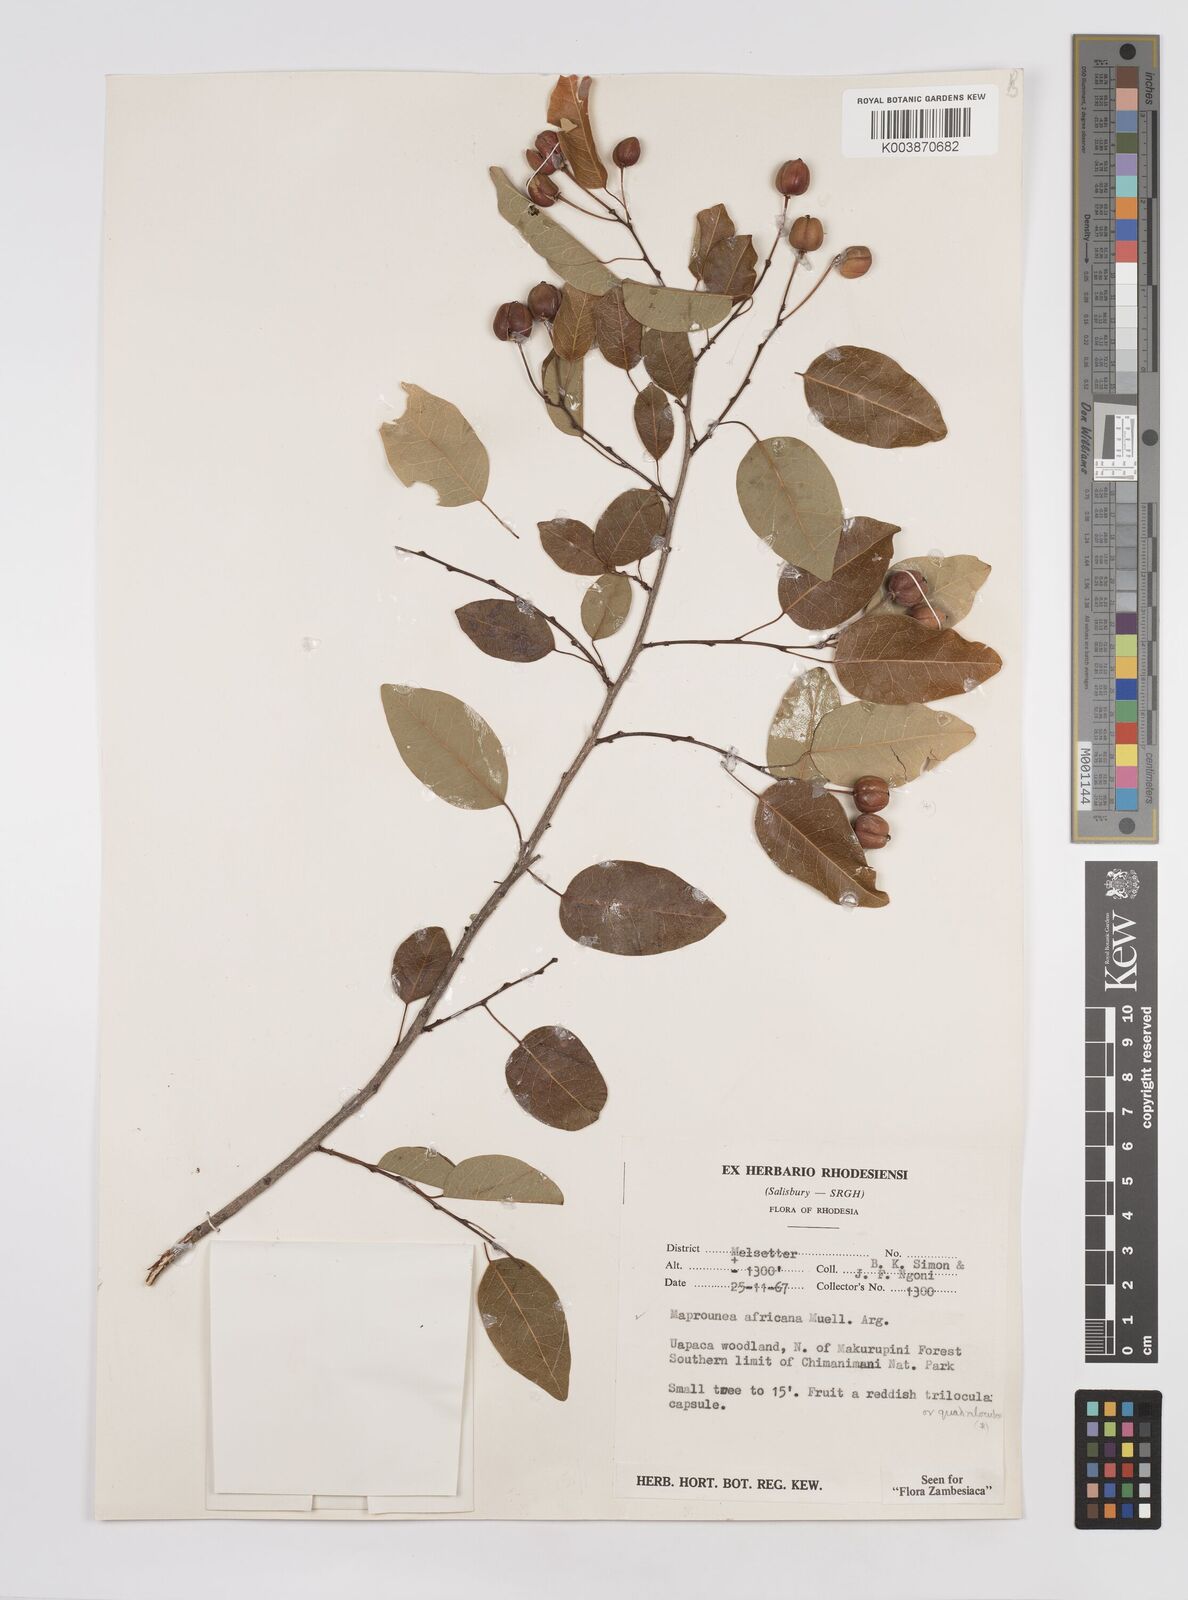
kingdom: Plantae
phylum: Tracheophyta
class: Magnoliopsida
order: Malpighiales
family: Euphorbiaceae
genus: Maprounea
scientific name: Maprounea africana
